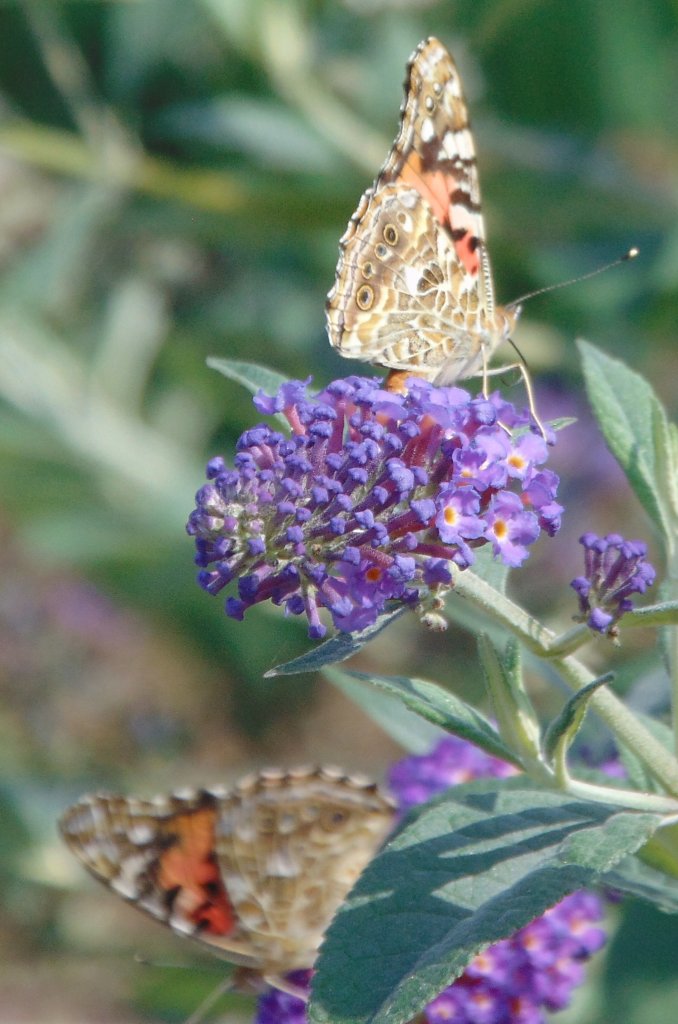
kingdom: Animalia
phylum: Arthropoda
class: Insecta
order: Lepidoptera
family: Nymphalidae
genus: Vanessa
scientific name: Vanessa cardui
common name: Painted Lady
